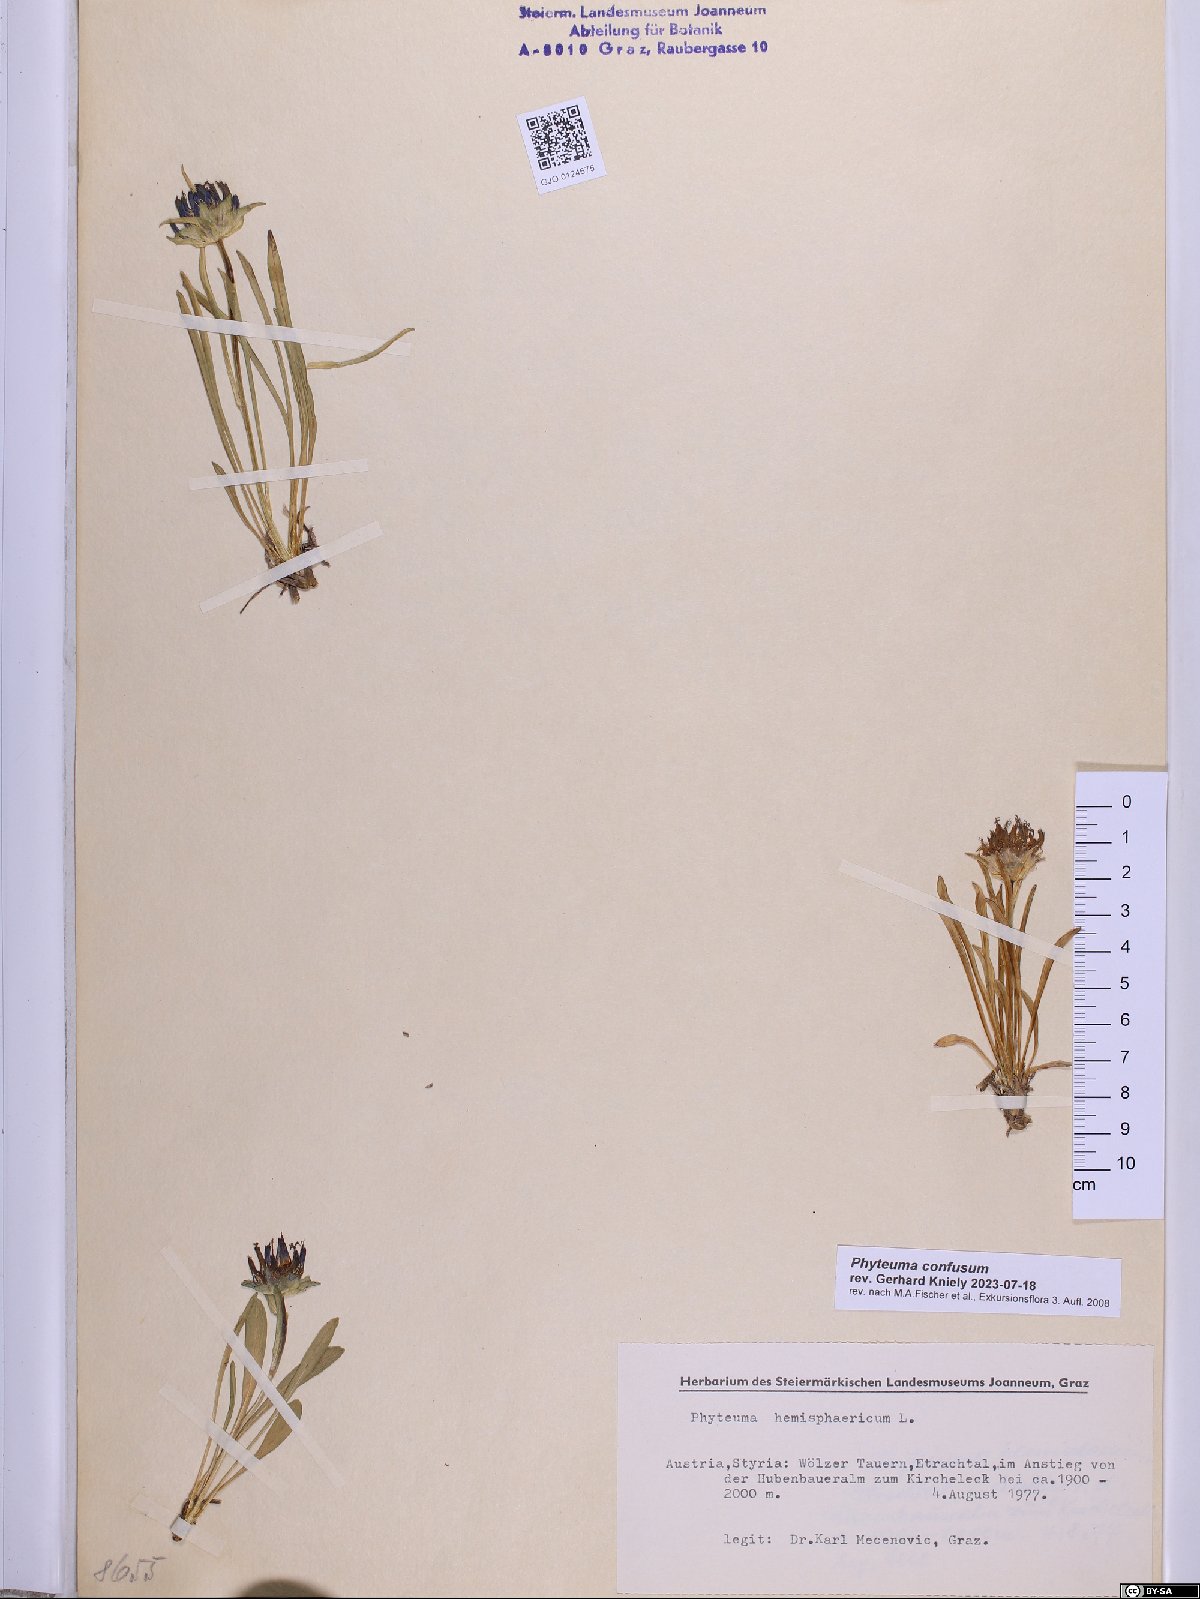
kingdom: Plantae
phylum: Tracheophyta
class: Magnoliopsida
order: Asterales
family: Campanulaceae
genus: Phyteuma
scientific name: Phyteuma confusum
